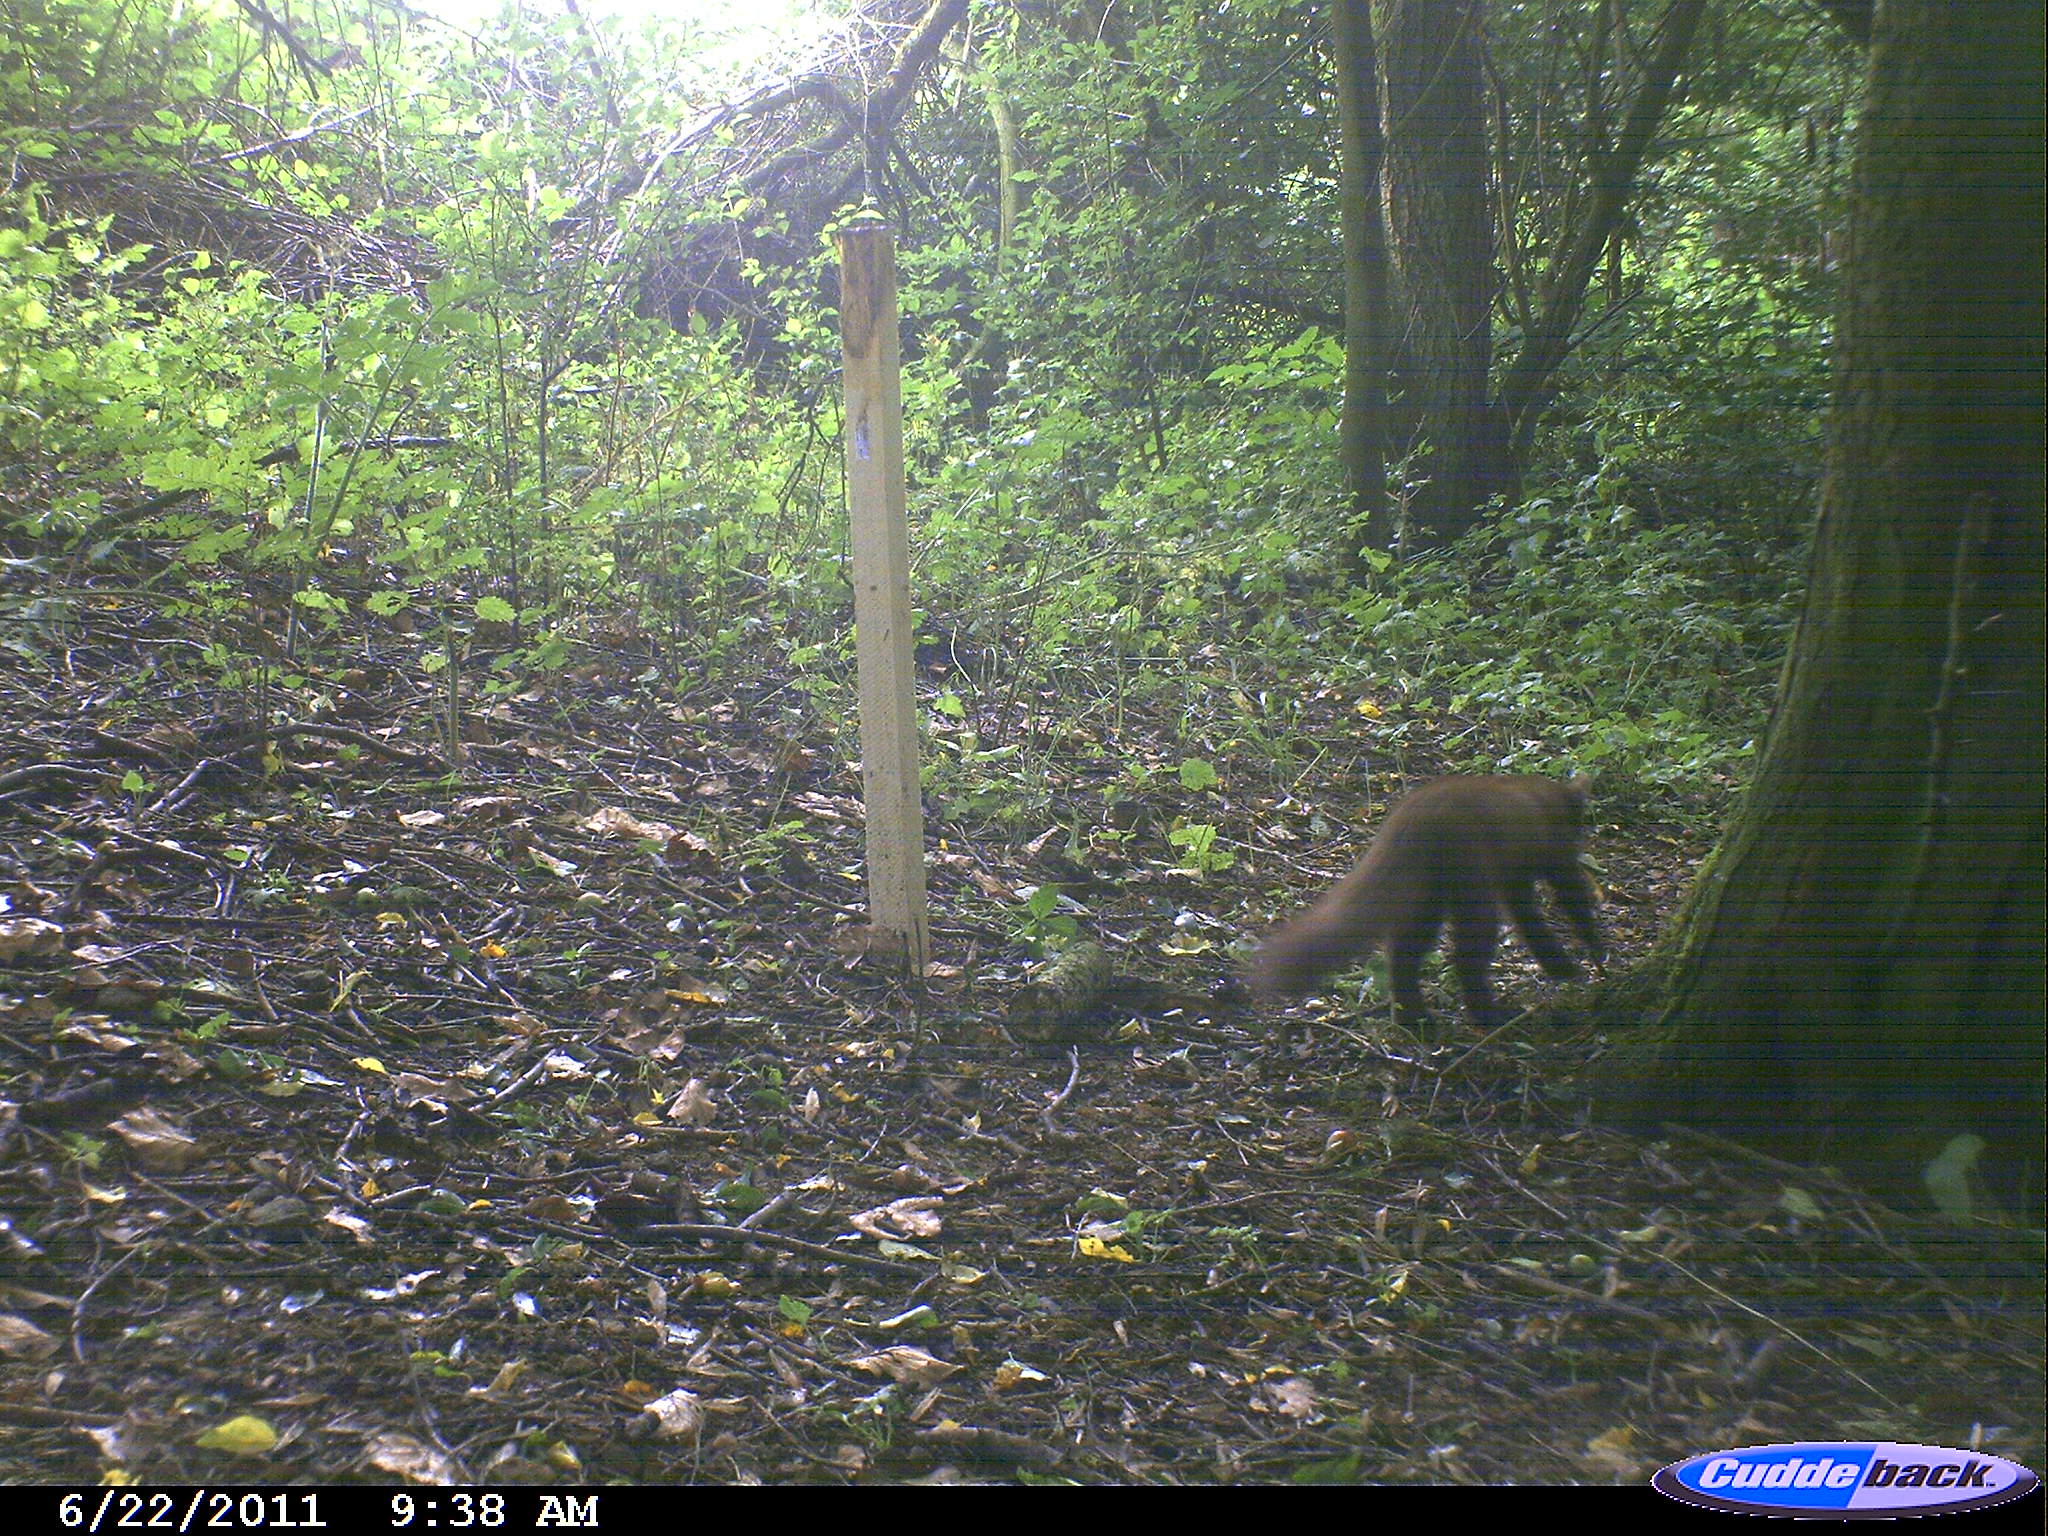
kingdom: Animalia
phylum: Chordata
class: Mammalia
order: Carnivora
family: Mustelidae
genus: Martes
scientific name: Martes
